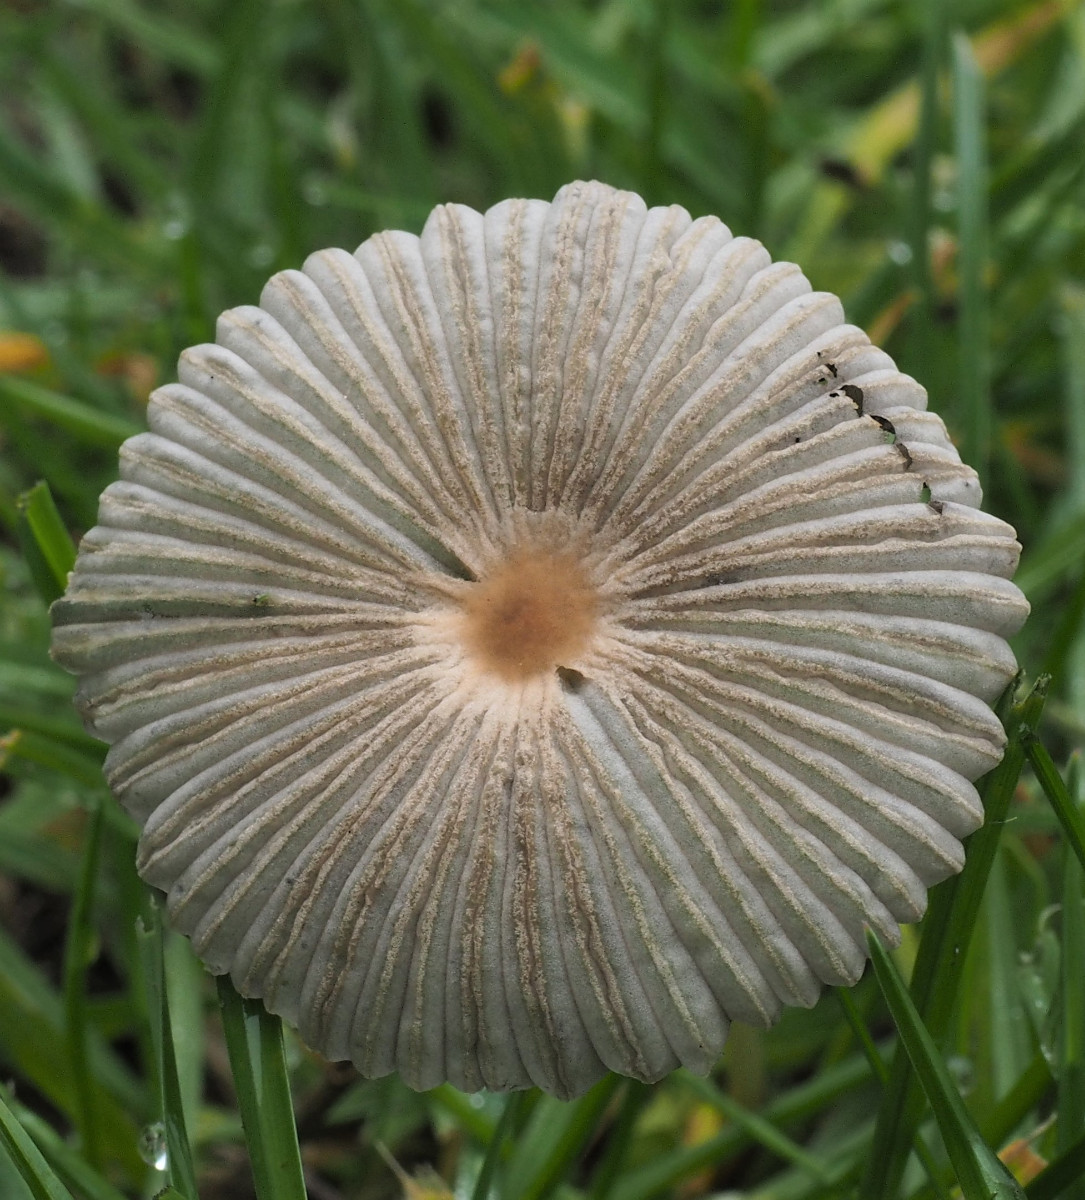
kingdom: Fungi
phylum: Basidiomycota
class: Agaricomycetes
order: Agaricales
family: Psathyrellaceae
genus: Parasola
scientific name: Parasola
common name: hjulhat
